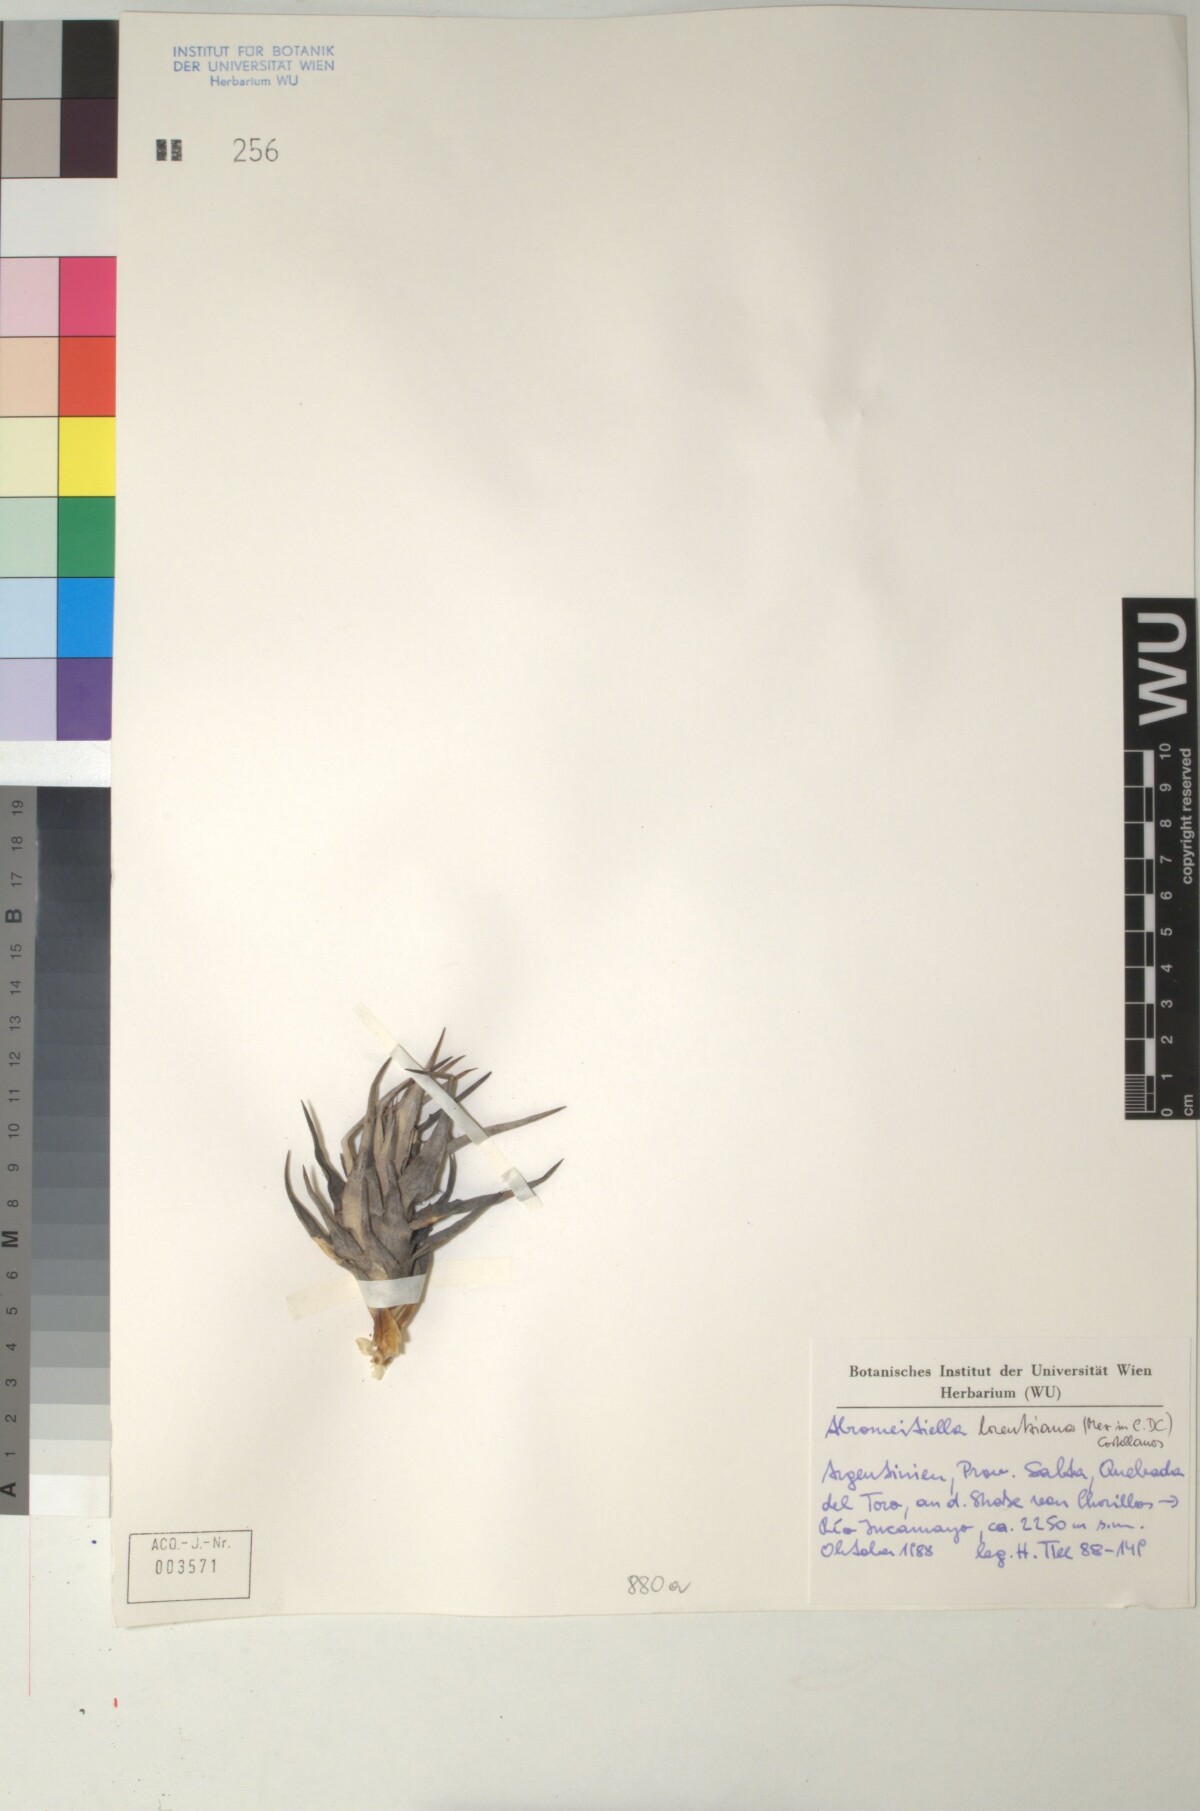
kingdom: Plantae
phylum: Tracheophyta
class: Liliopsida
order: Poales
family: Bromeliaceae
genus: Deuterocohnia
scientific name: Deuterocohnia abstrusa
